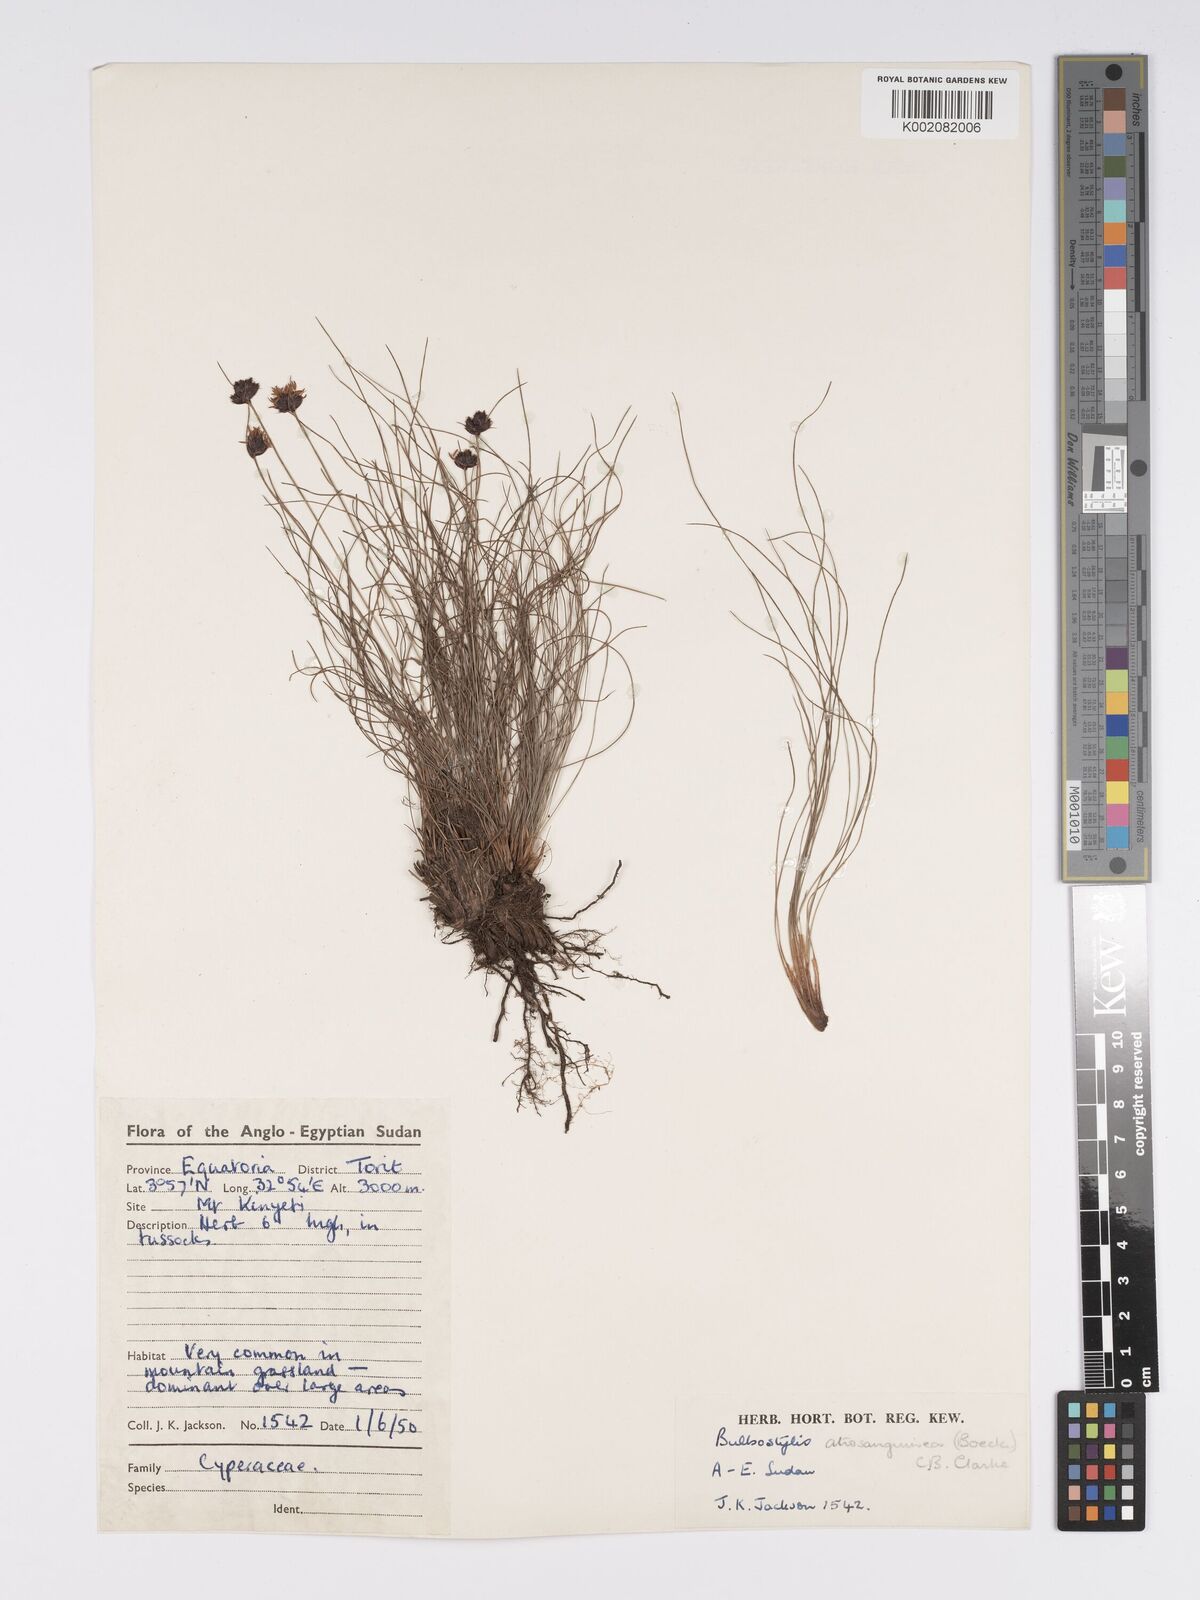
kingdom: Plantae
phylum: Tracheophyta
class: Liliopsida
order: Poales
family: Cyperaceae
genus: Bulbostylis
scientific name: Bulbostylis atrosanguinea
